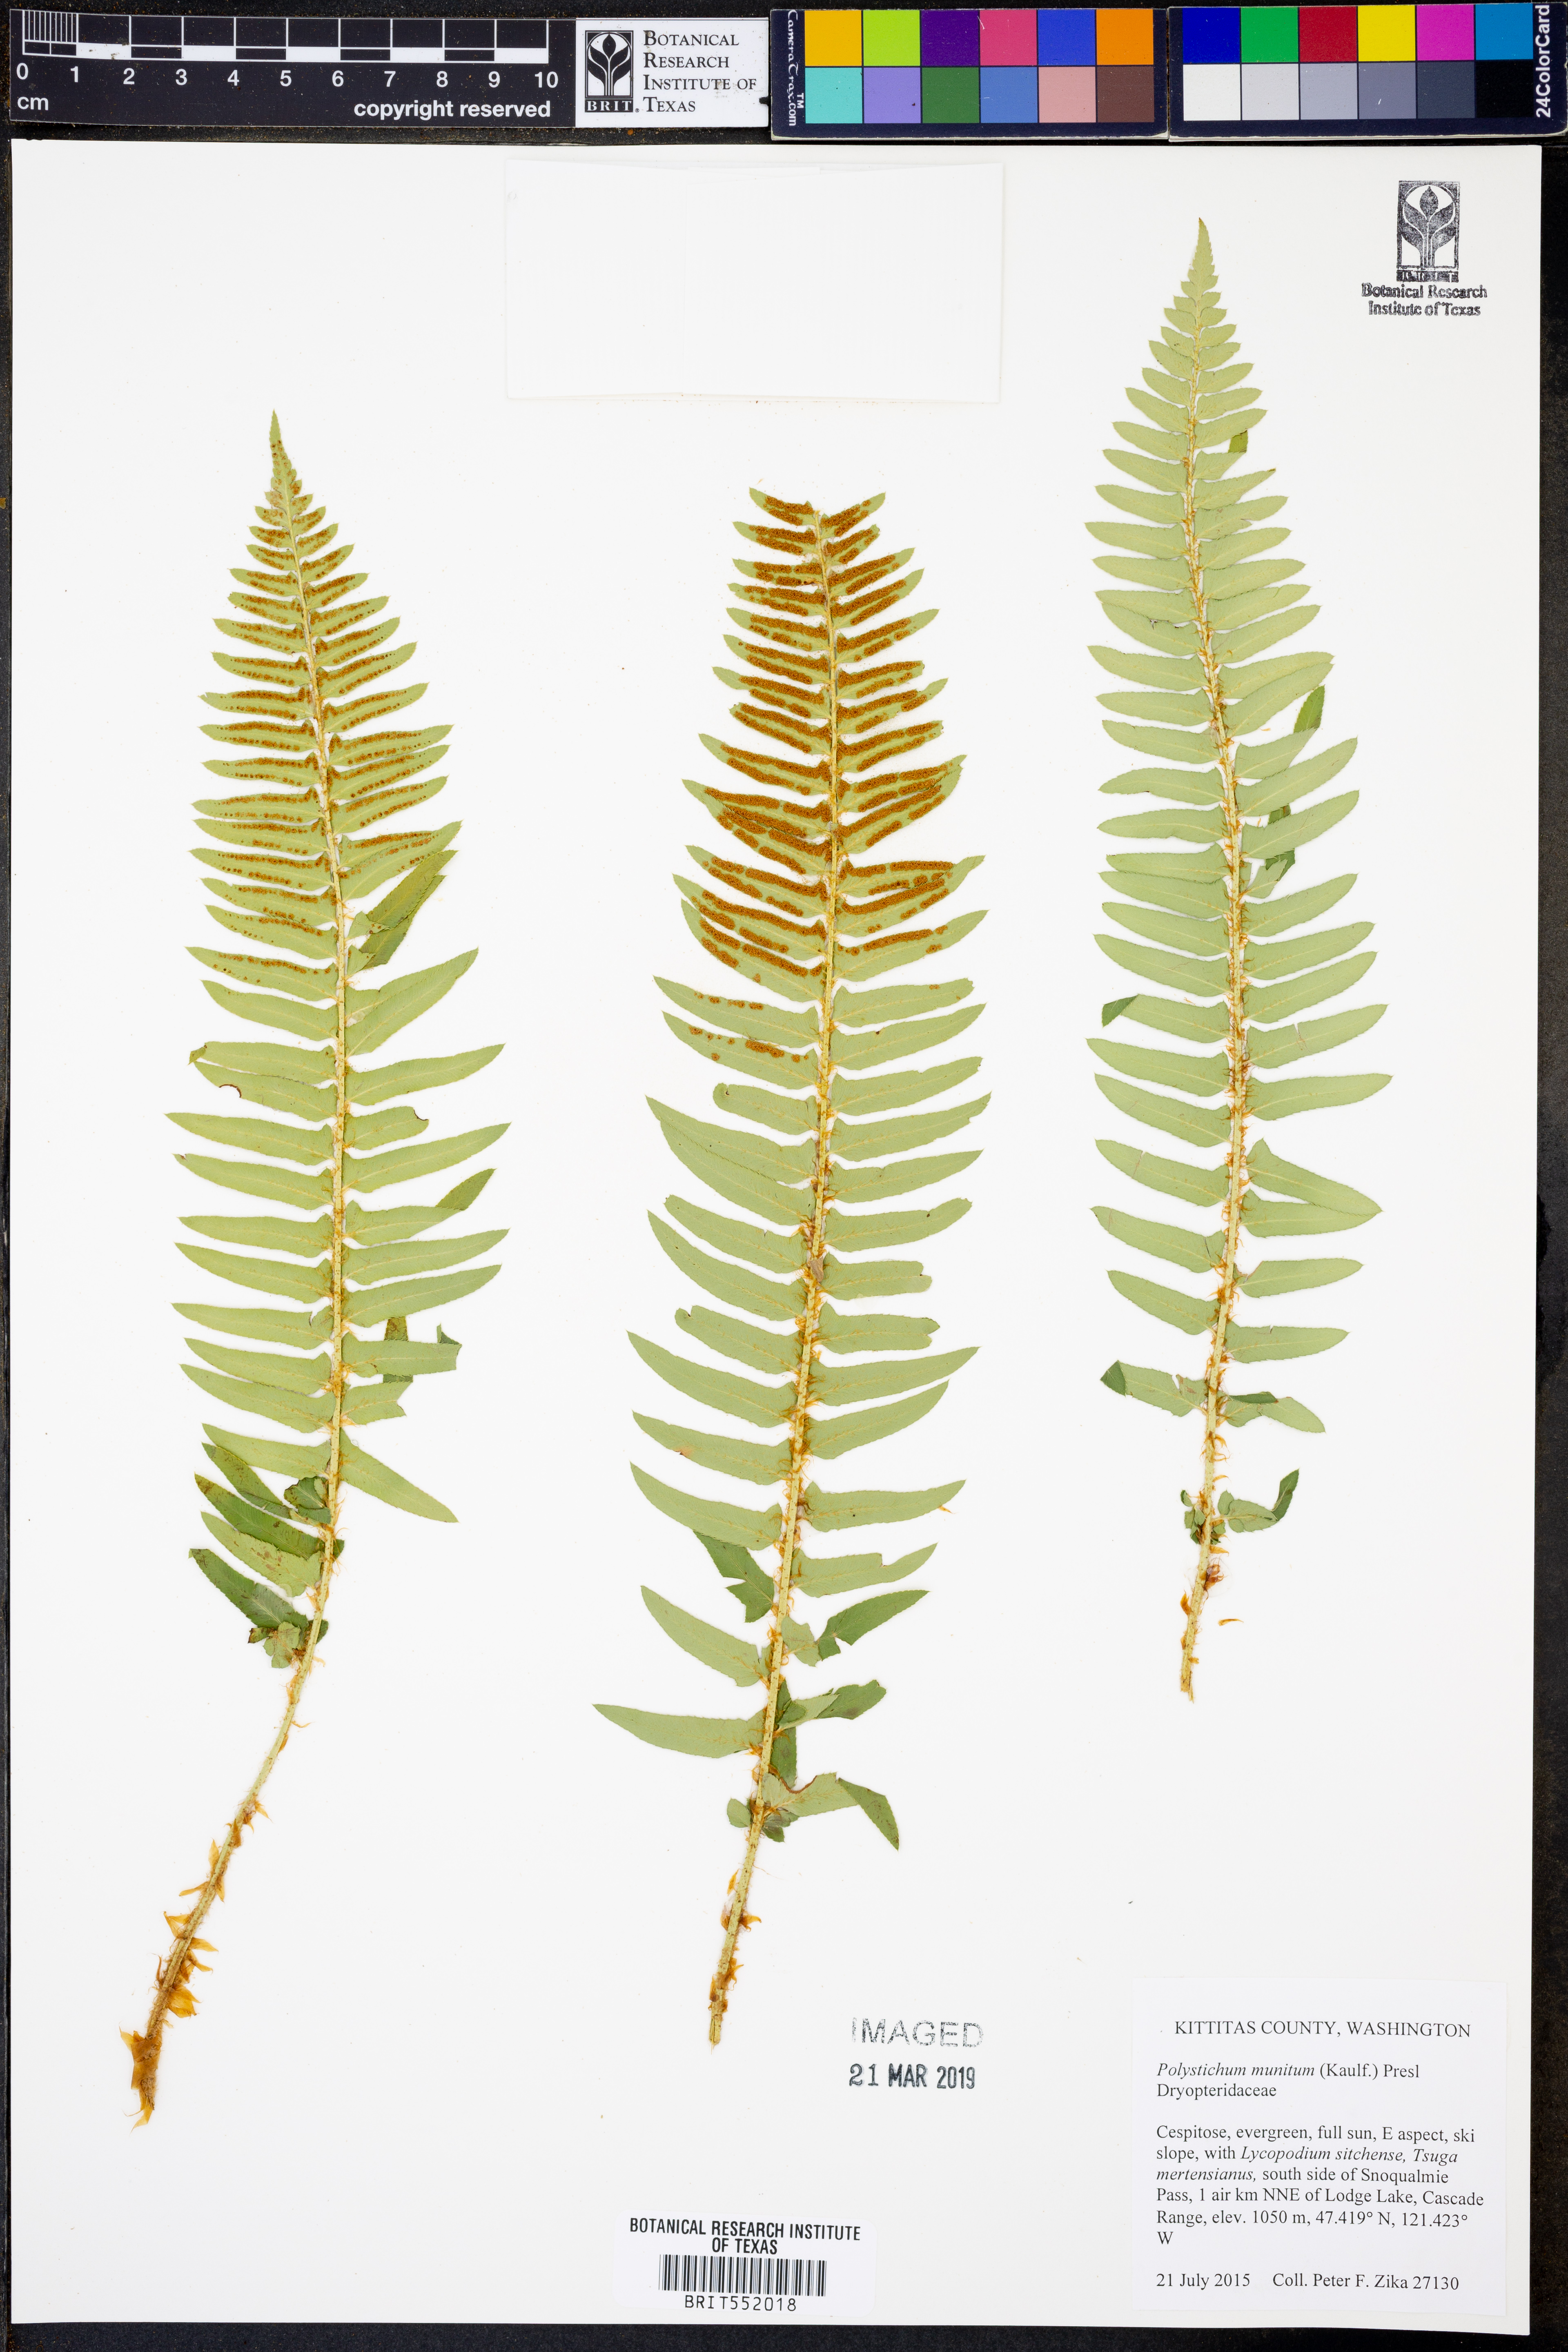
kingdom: Plantae
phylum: Tracheophyta
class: Polypodiopsida
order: Polypodiales
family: Dryopteridaceae
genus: Polystichum
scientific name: Polystichum munitum
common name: Western sword-fern
